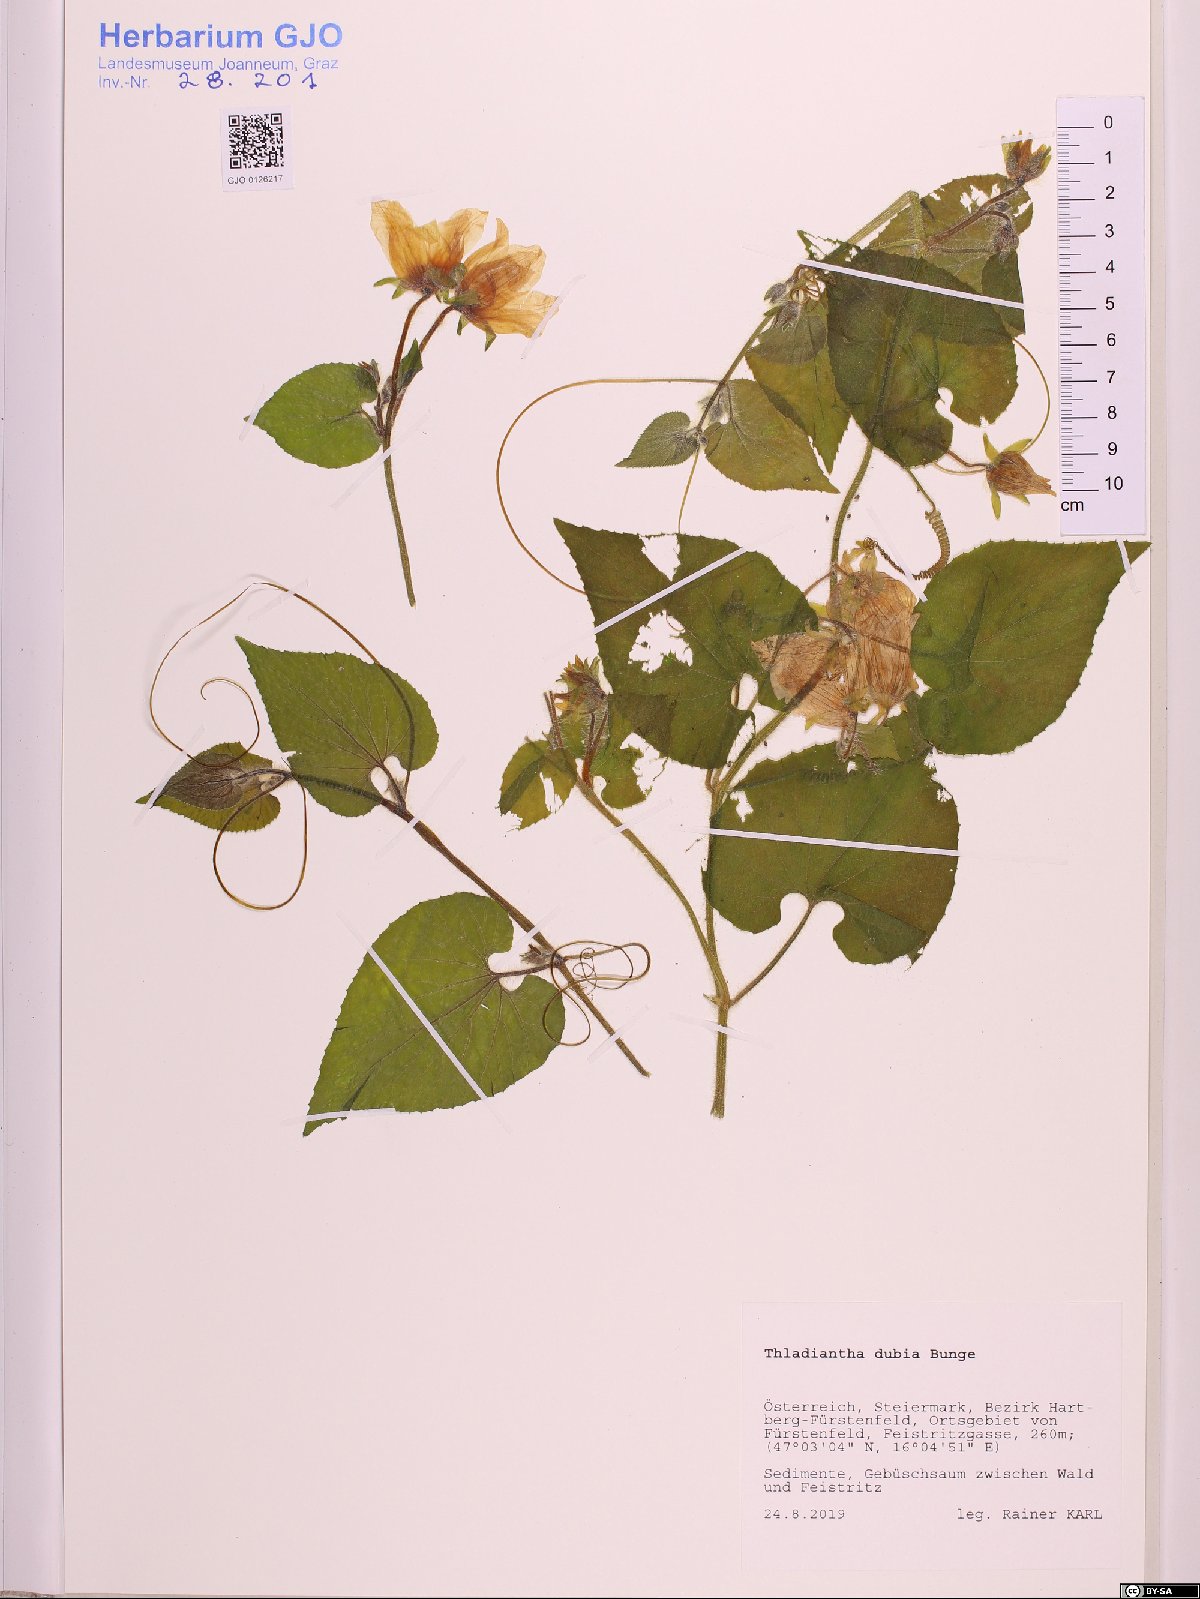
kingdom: Plantae
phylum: Tracheophyta
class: Magnoliopsida
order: Cucurbitales
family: Cucurbitaceae
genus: Thladiantha
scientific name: Thladiantha dubia
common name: Manchu tubergourd
